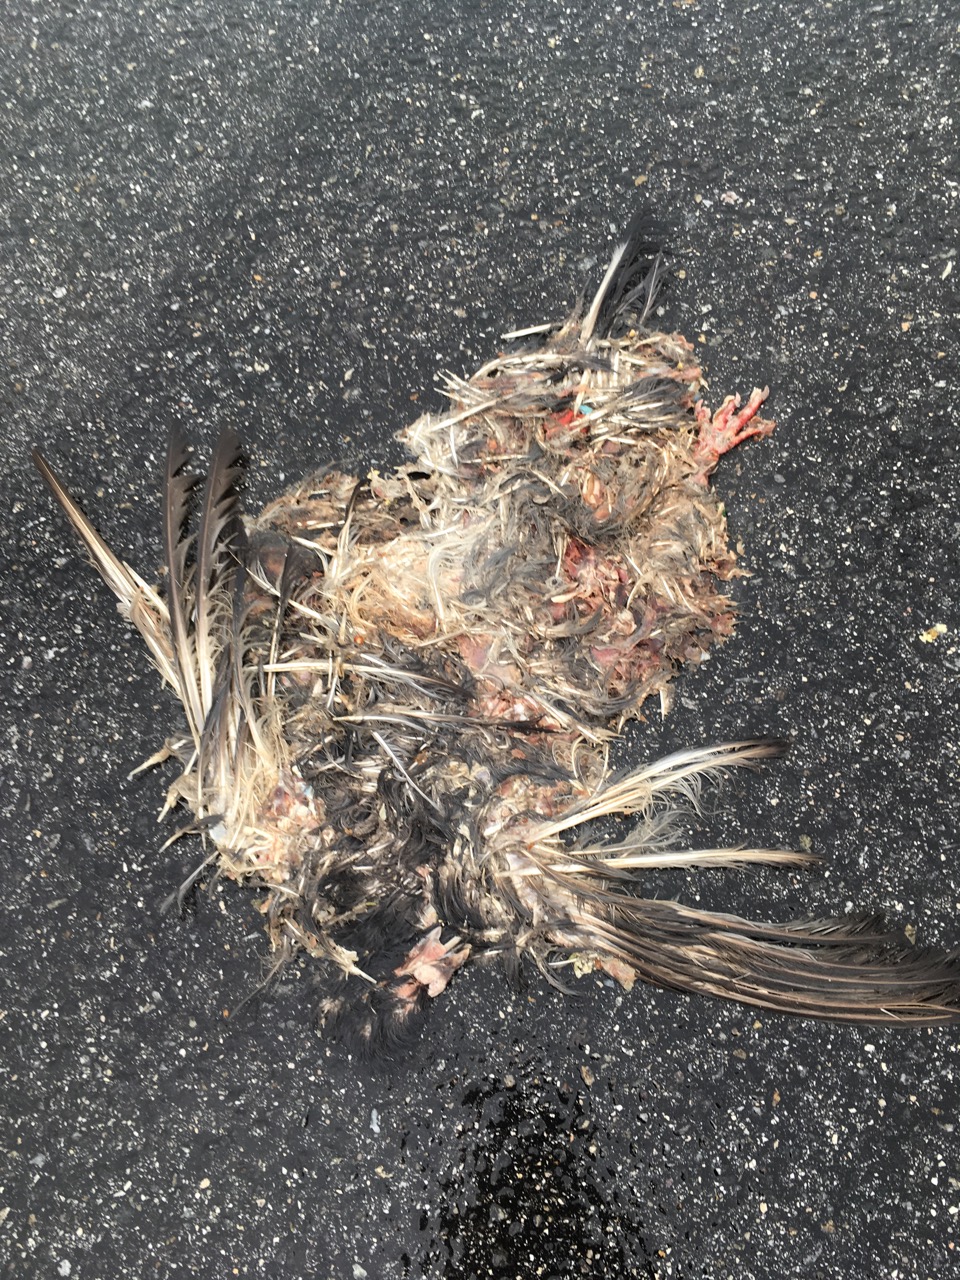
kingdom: Animalia
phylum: Chordata
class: Aves
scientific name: Aves
